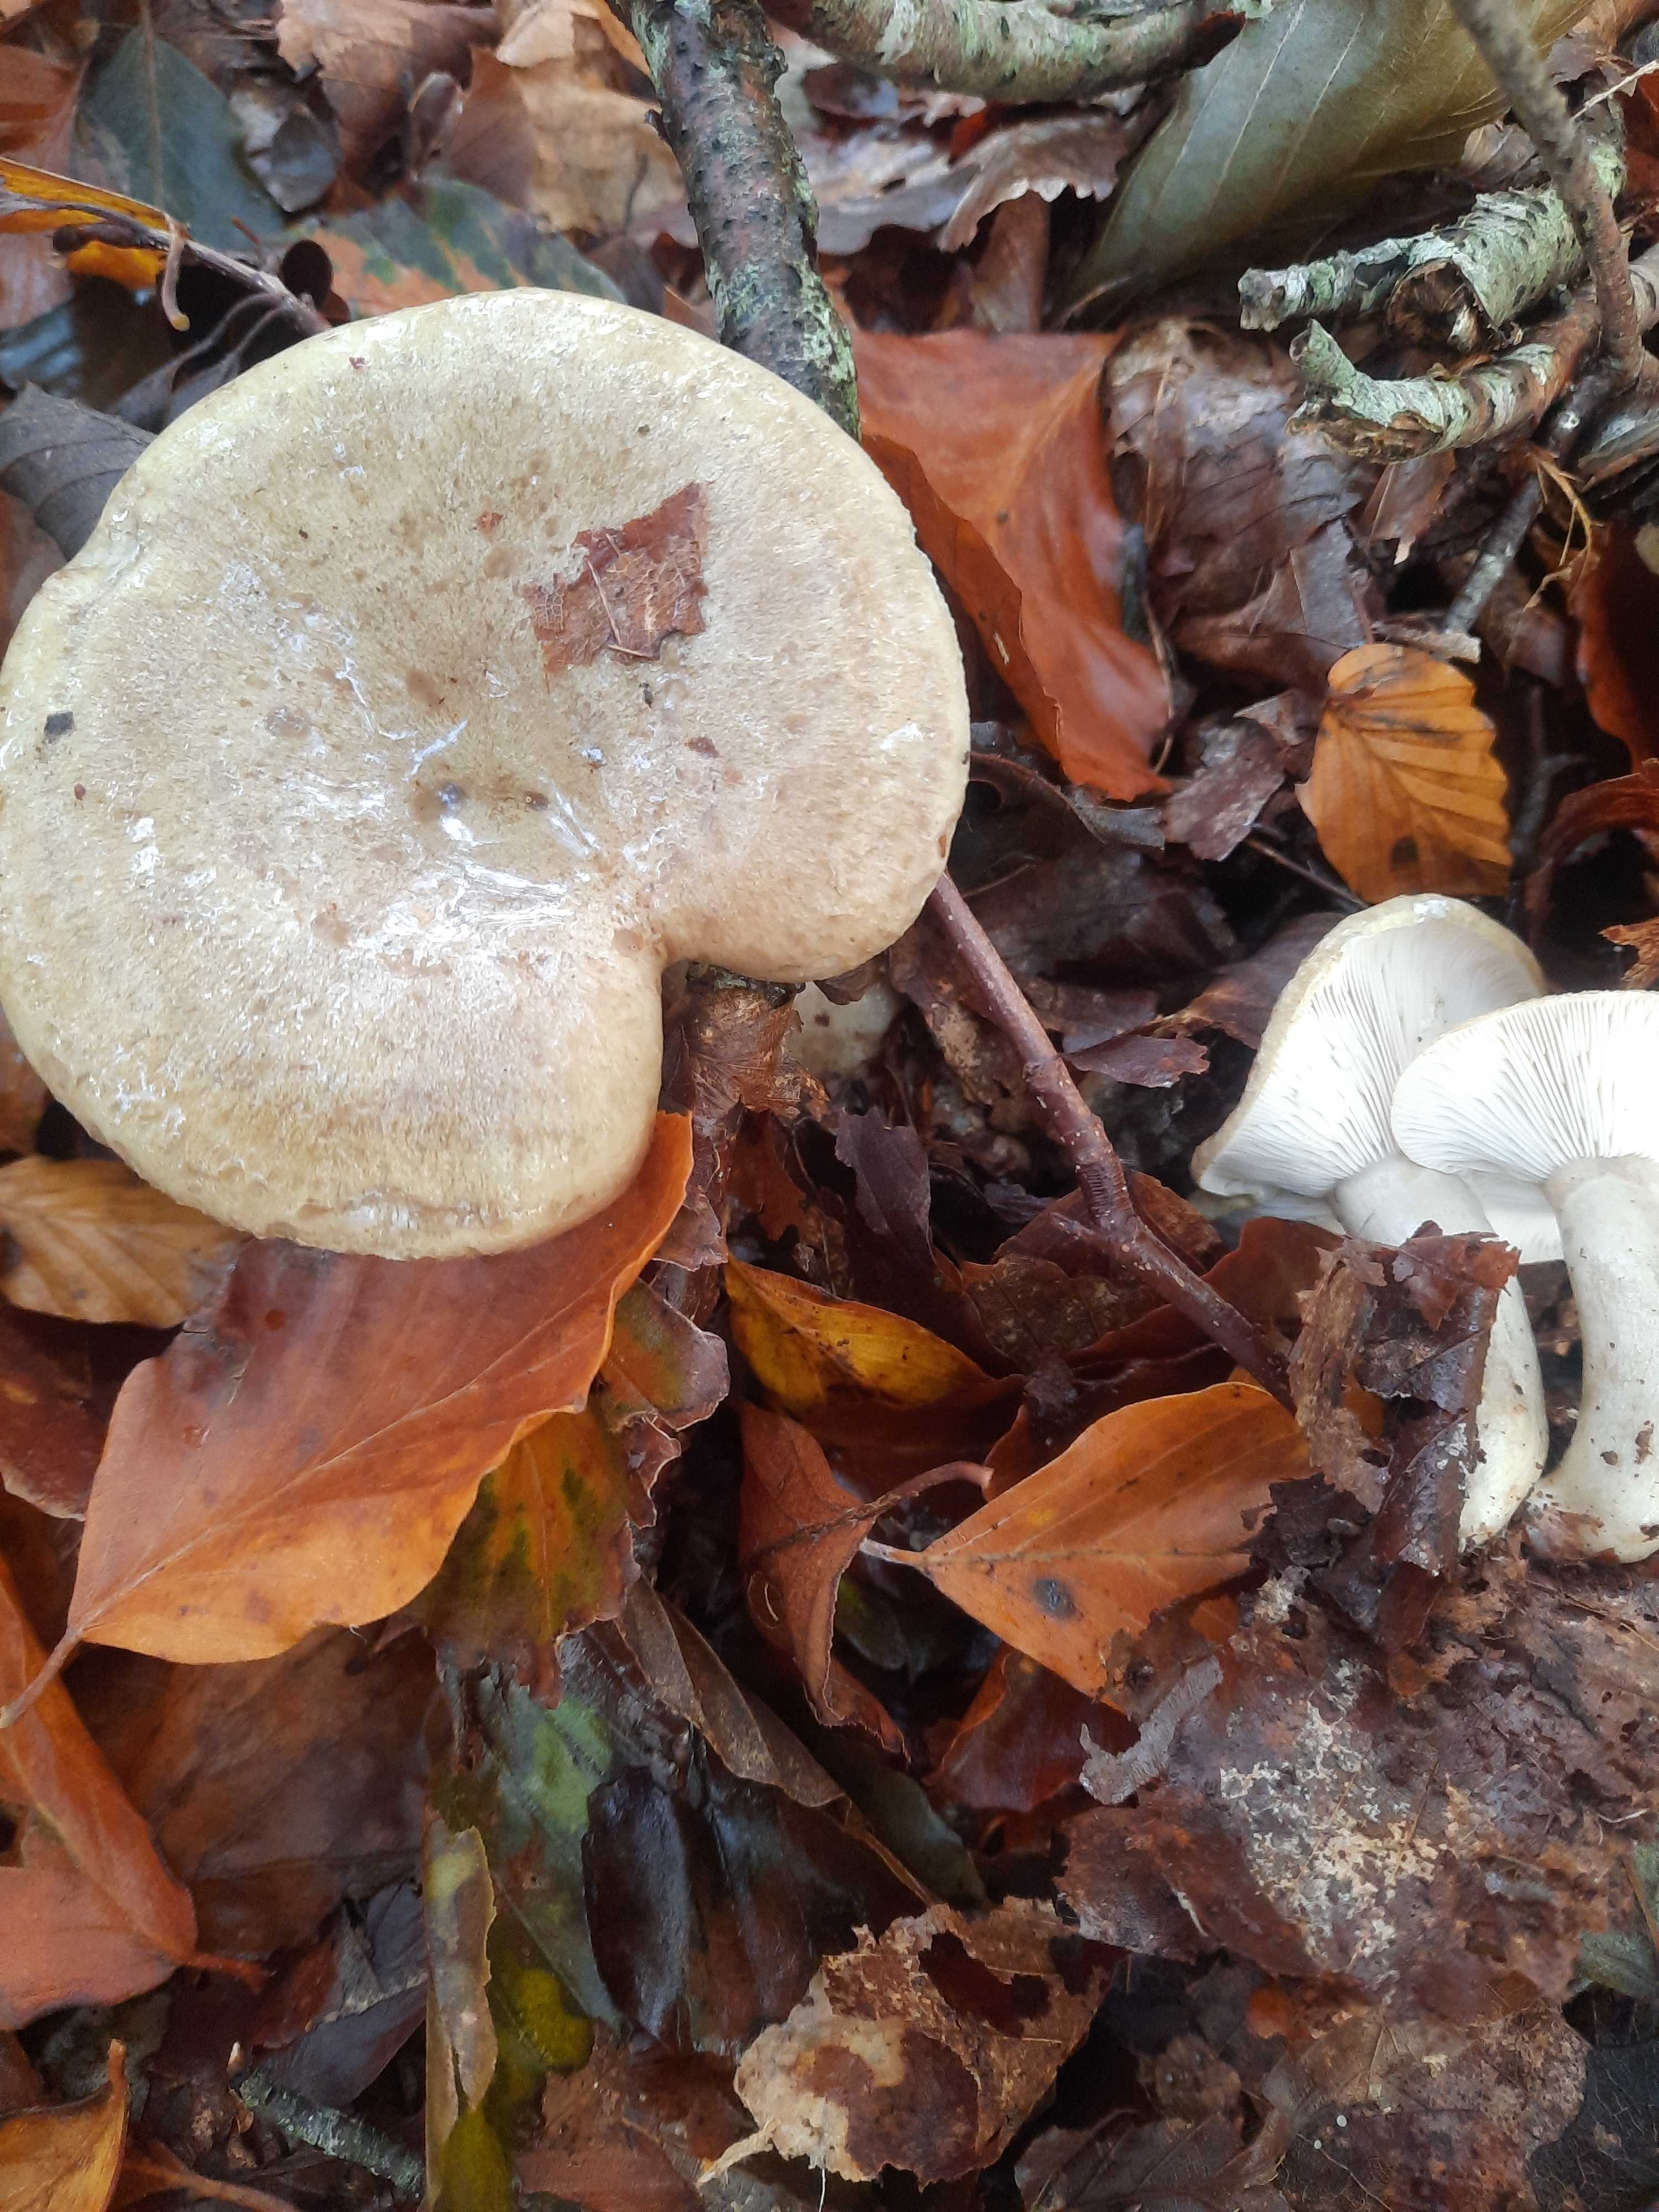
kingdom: Fungi
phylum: Basidiomycota
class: Agaricomycetes
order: Russulales
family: Russulaceae
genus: Lactarius
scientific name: Lactarius blennius
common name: dråbeplettet mælkehat
